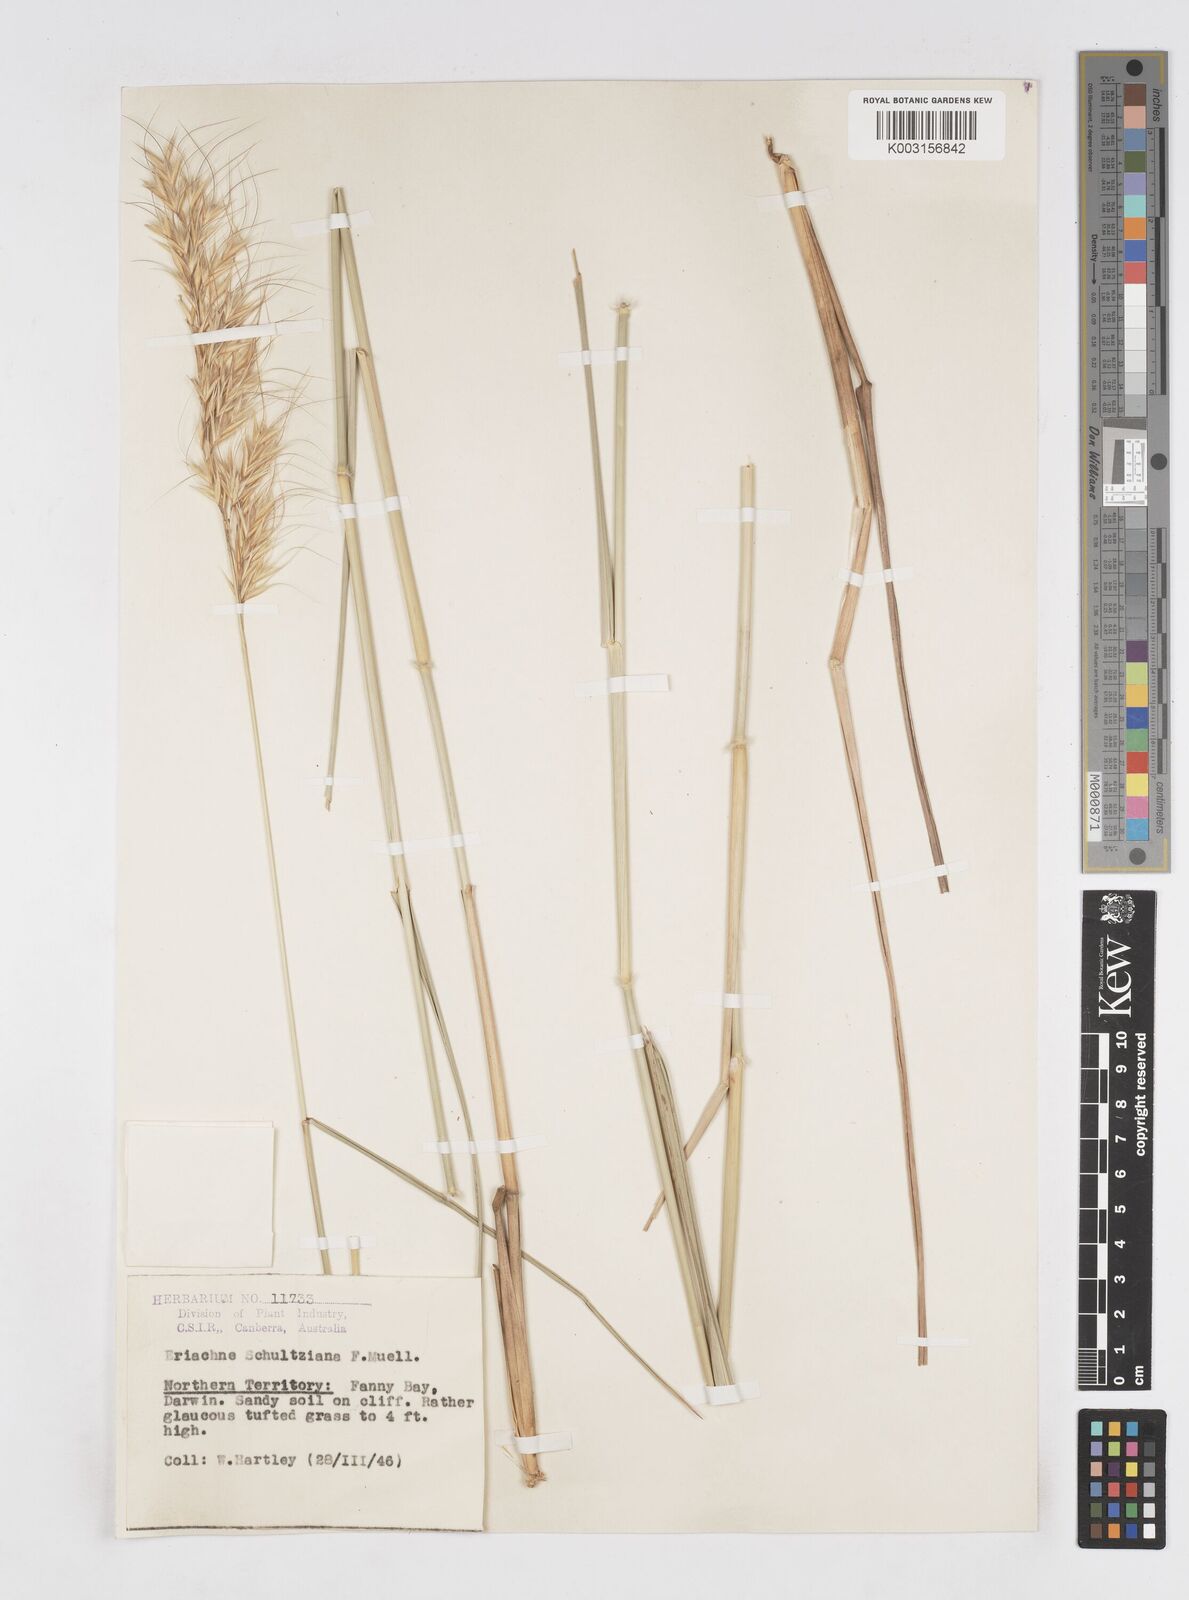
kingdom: Plantae
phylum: Tracheophyta
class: Liliopsida
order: Poales
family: Poaceae
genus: Eriachne
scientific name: Eriachne schultziana
